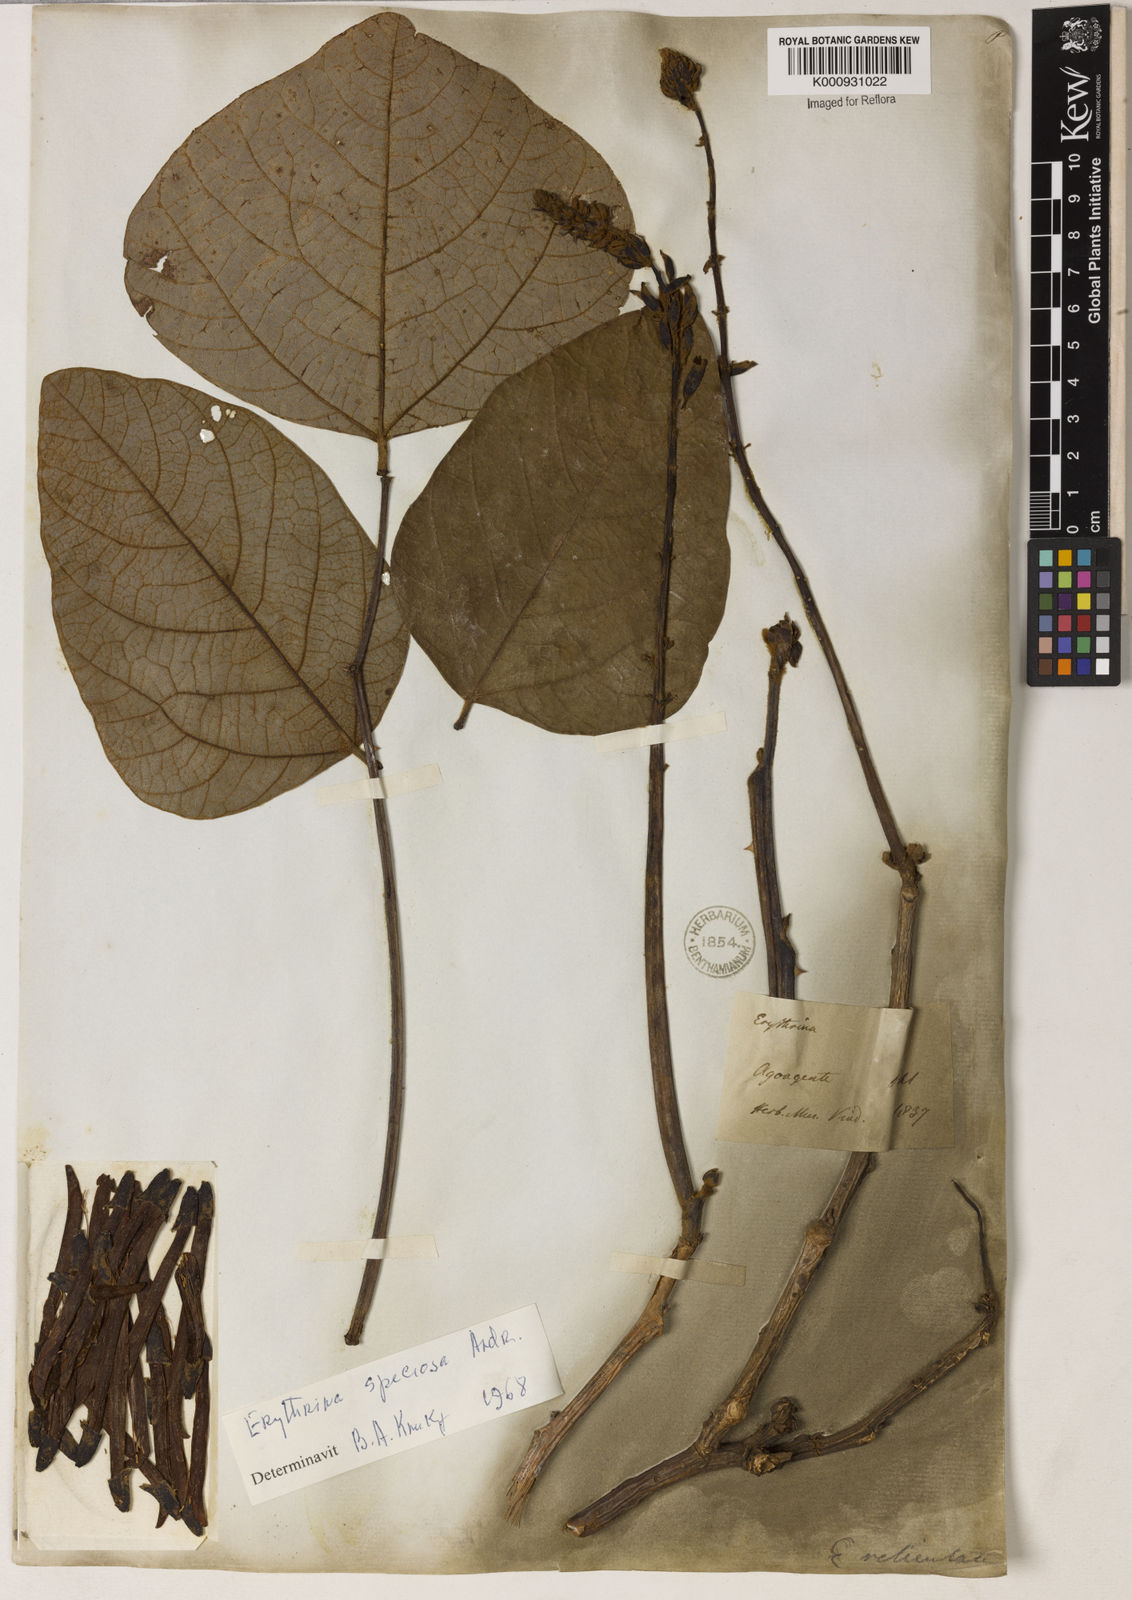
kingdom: Plantae
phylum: Tracheophyta
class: Magnoliopsida
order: Fabales
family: Fabaceae
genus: Erythrina
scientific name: Erythrina speciosa
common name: Coral tree
